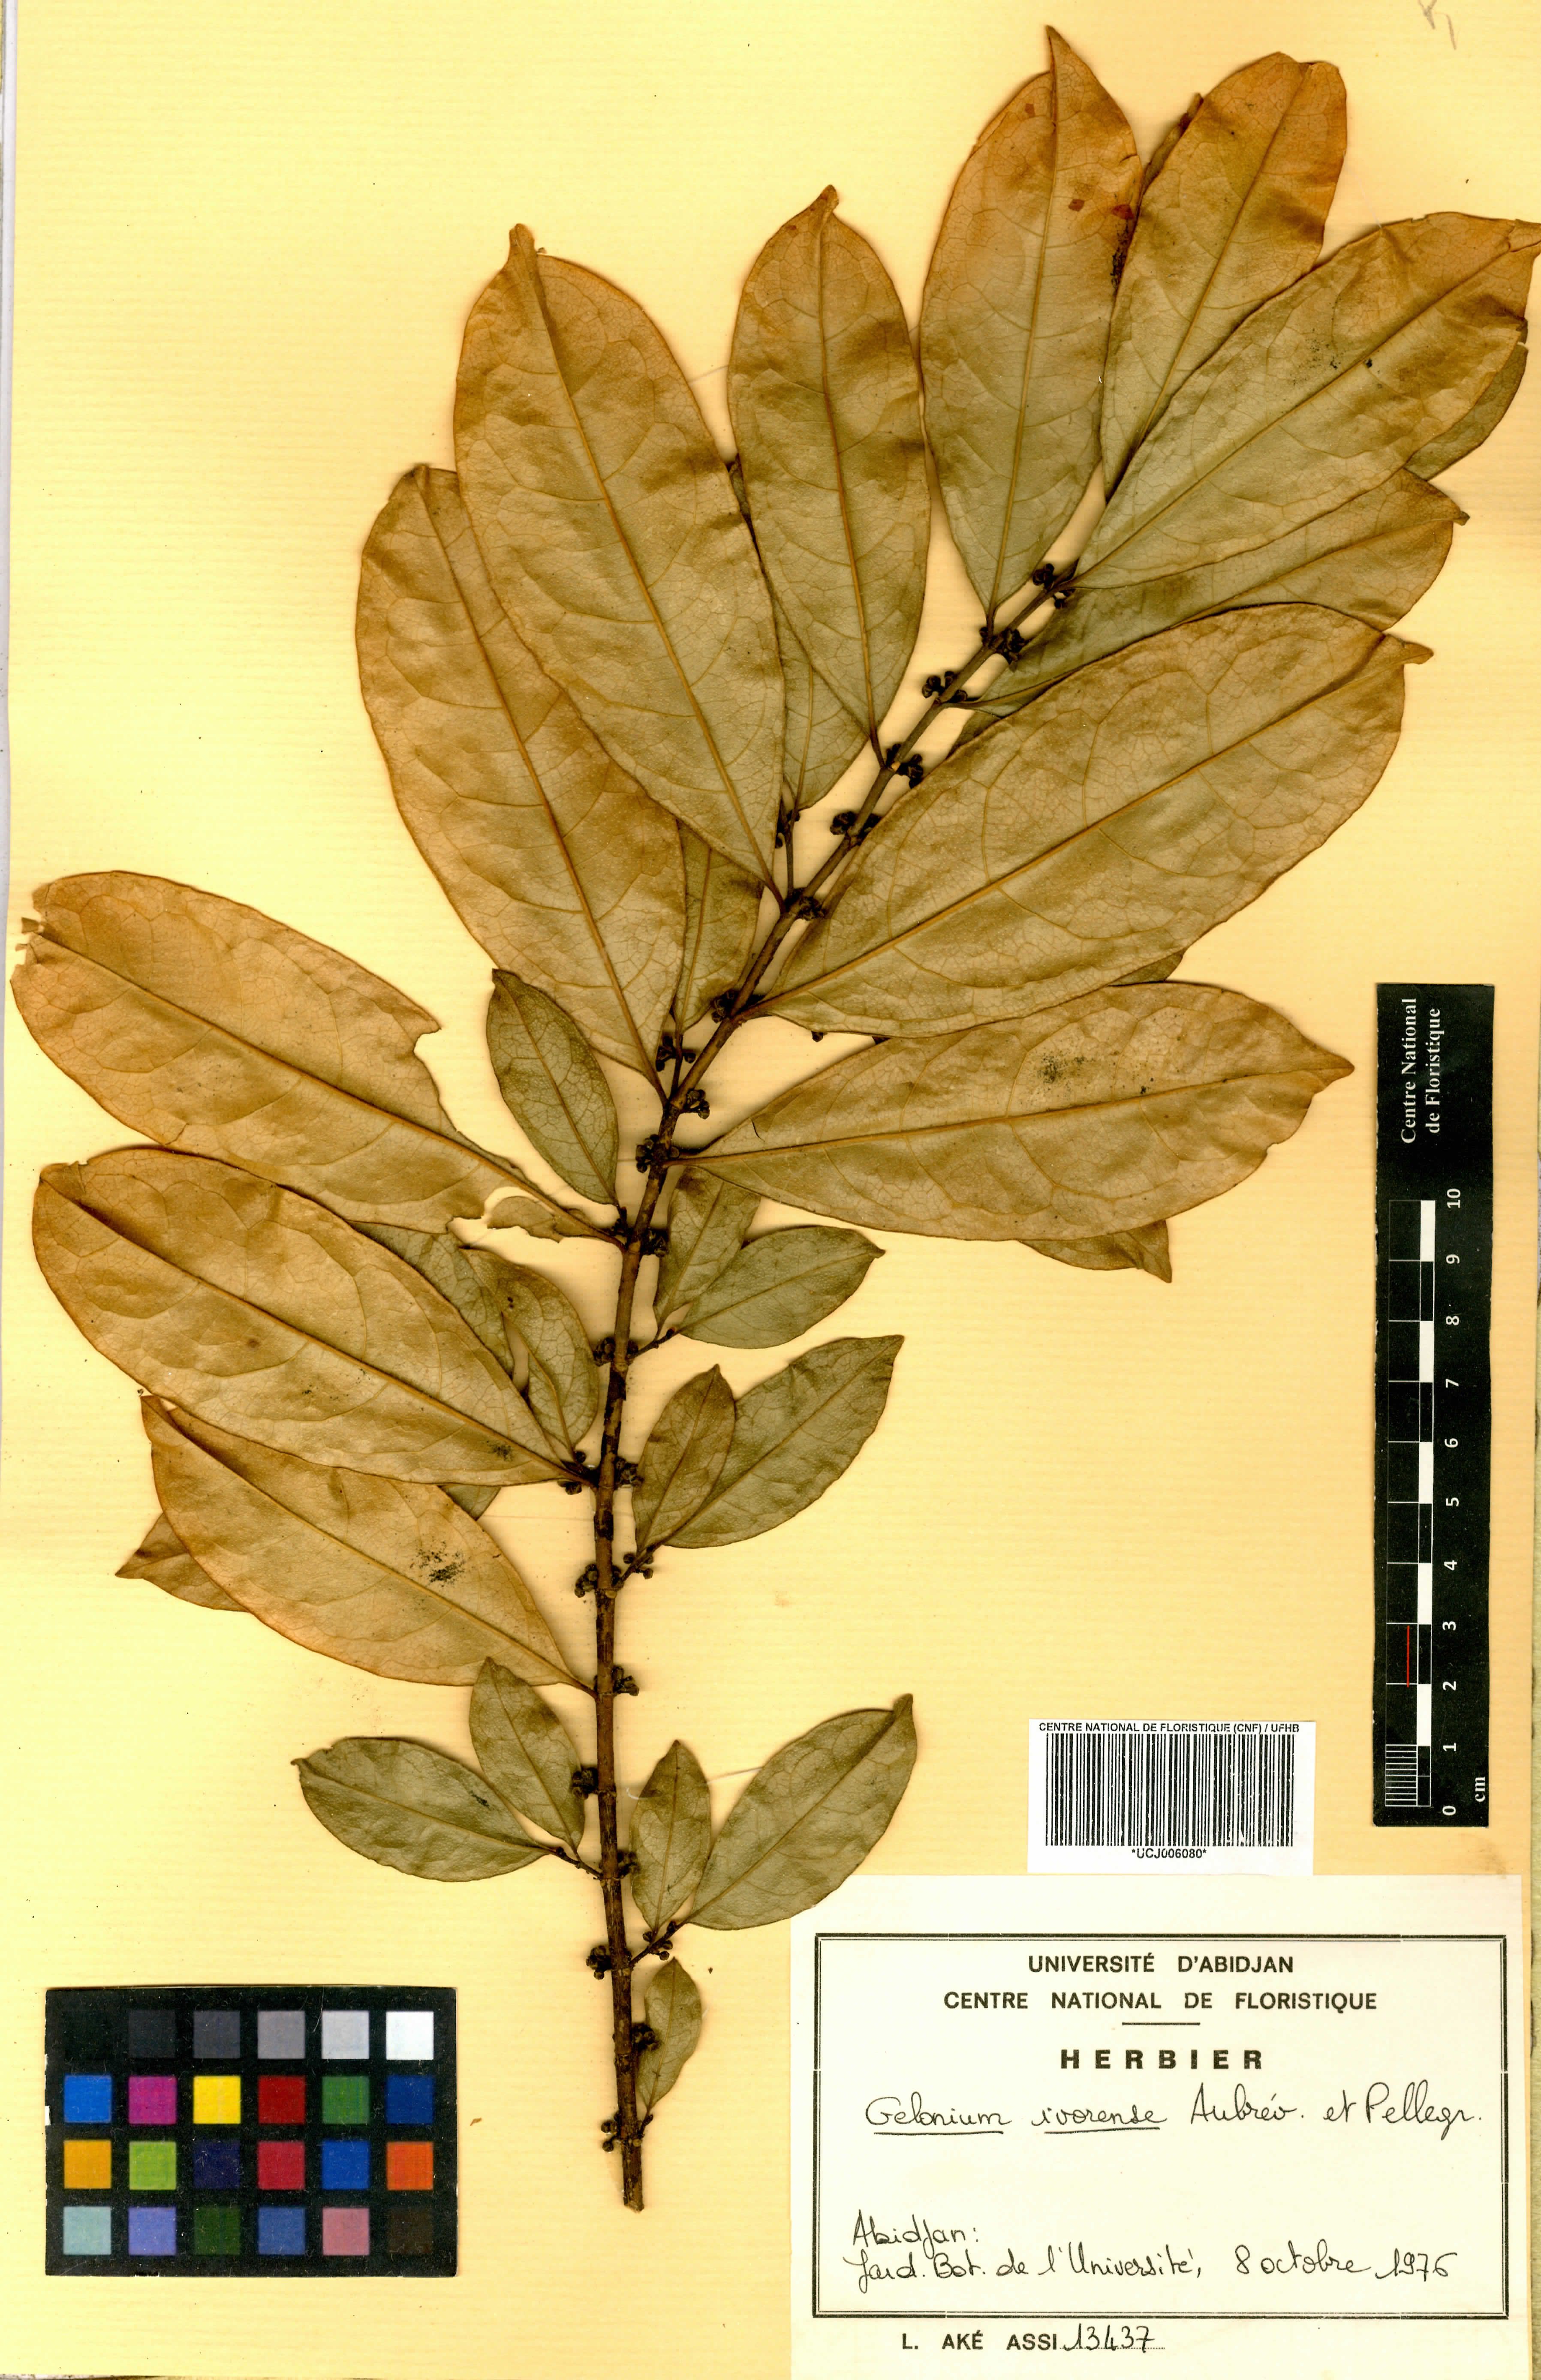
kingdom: Plantae
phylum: Tracheophyta
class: Magnoliopsida
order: Malpighiales
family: Euphorbiaceae
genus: Suregada
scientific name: Suregada ivorensis
